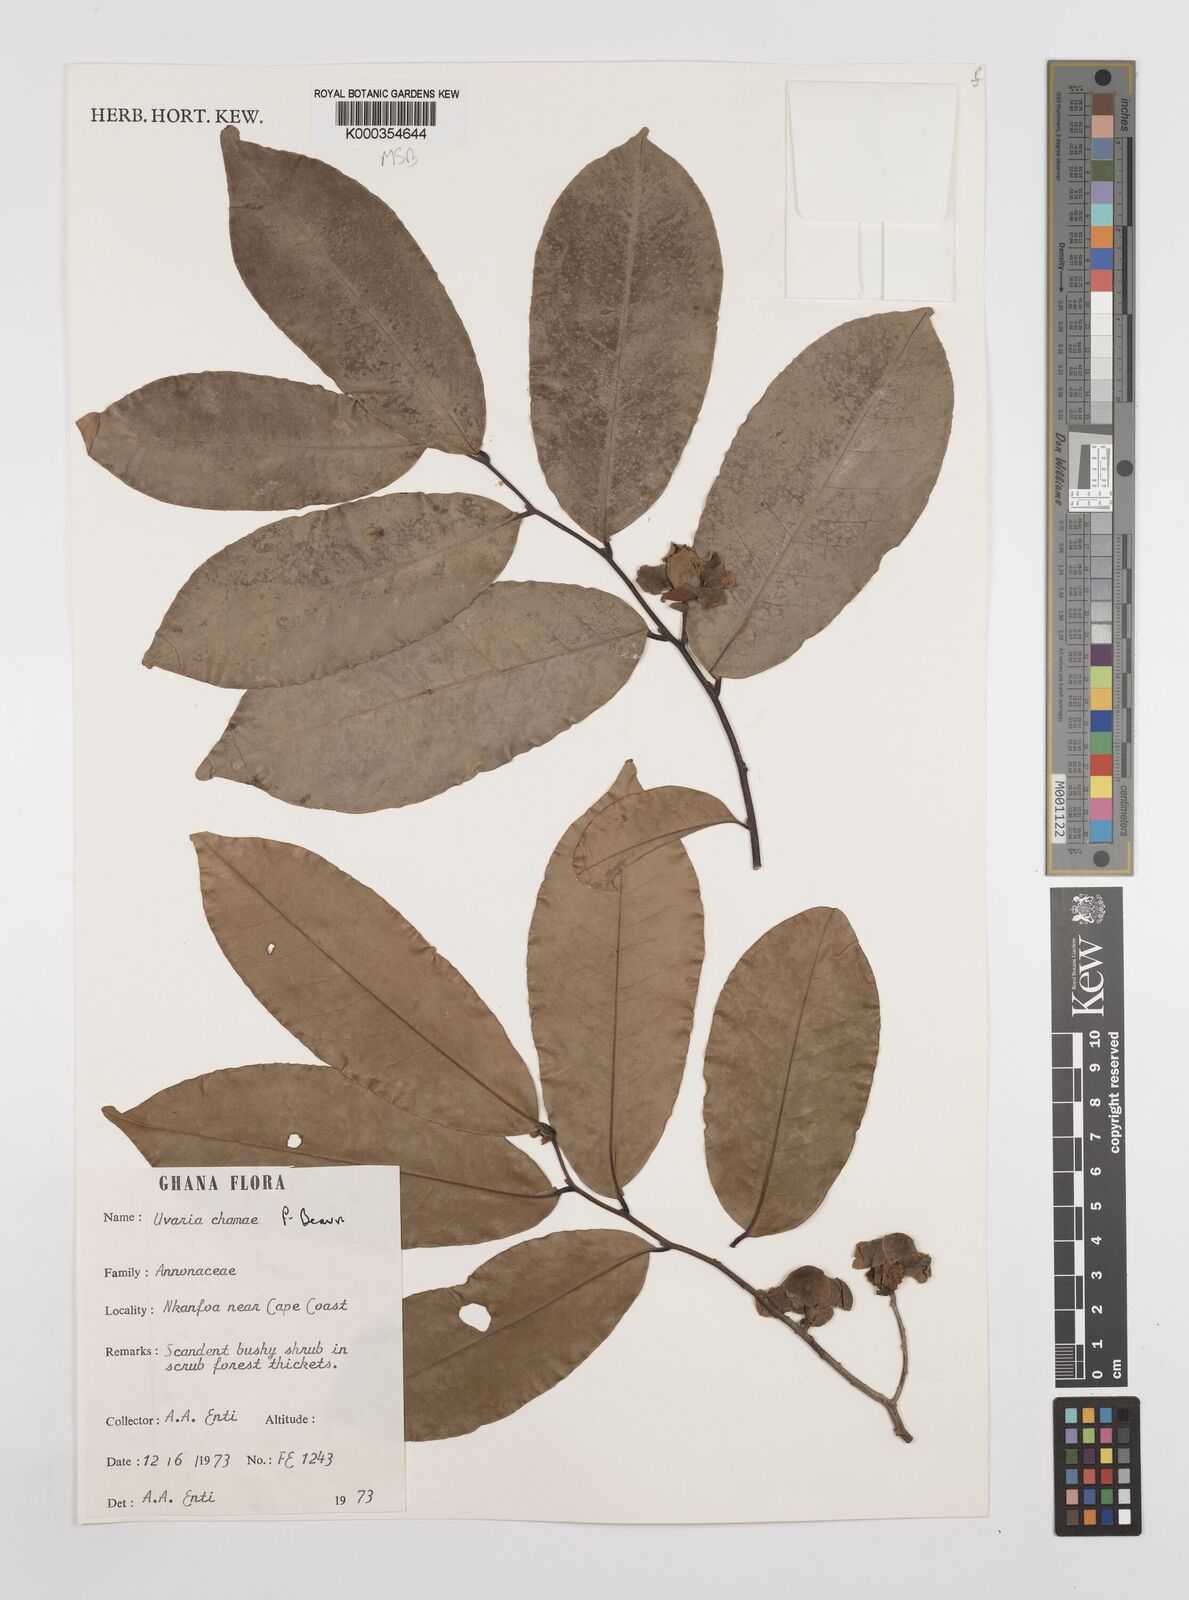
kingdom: Plantae
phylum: Tracheophyta
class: Magnoliopsida
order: Magnoliales
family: Annonaceae
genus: Uvaria
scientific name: Uvaria chamae
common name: Finger-root
